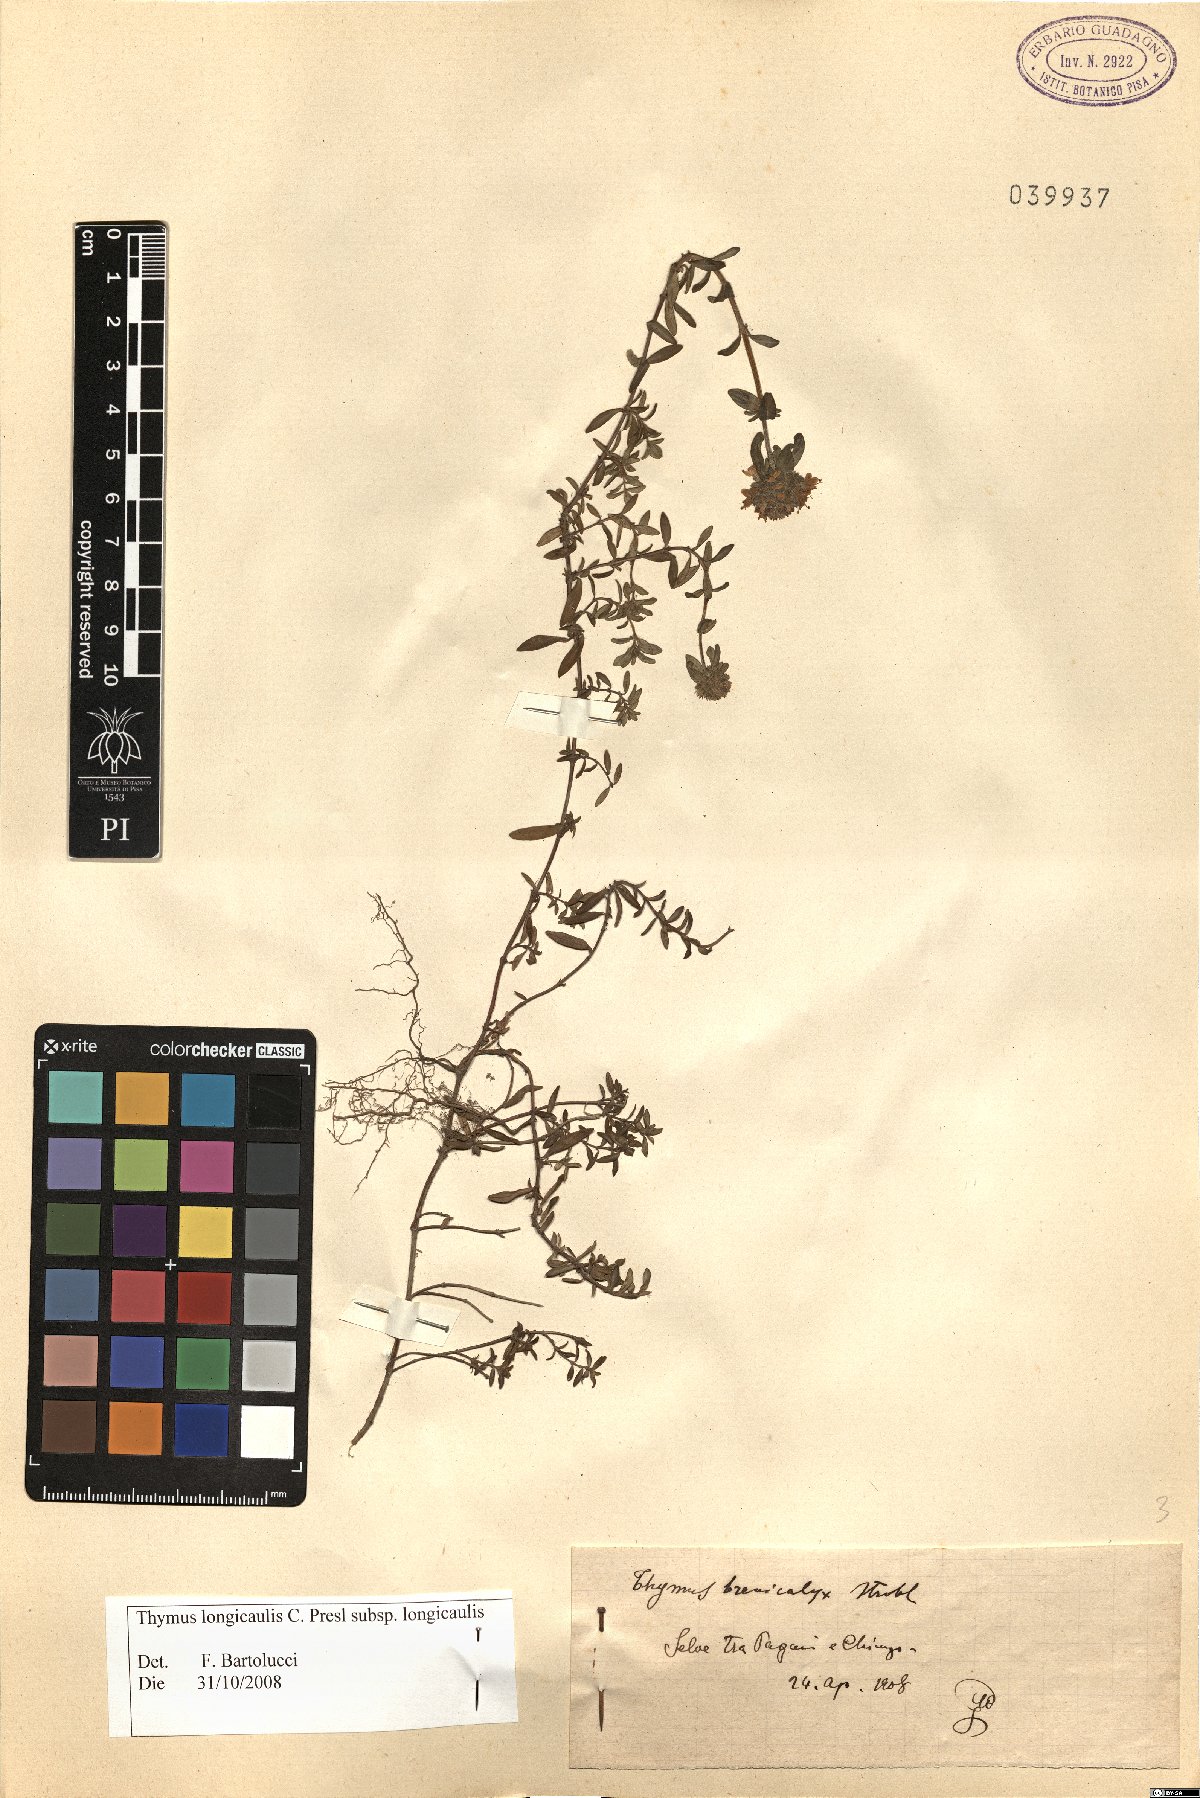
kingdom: Plantae
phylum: Tracheophyta
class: Magnoliopsida
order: Lamiales
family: Lamiaceae
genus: Thymus
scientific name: Thymus longicaulis
